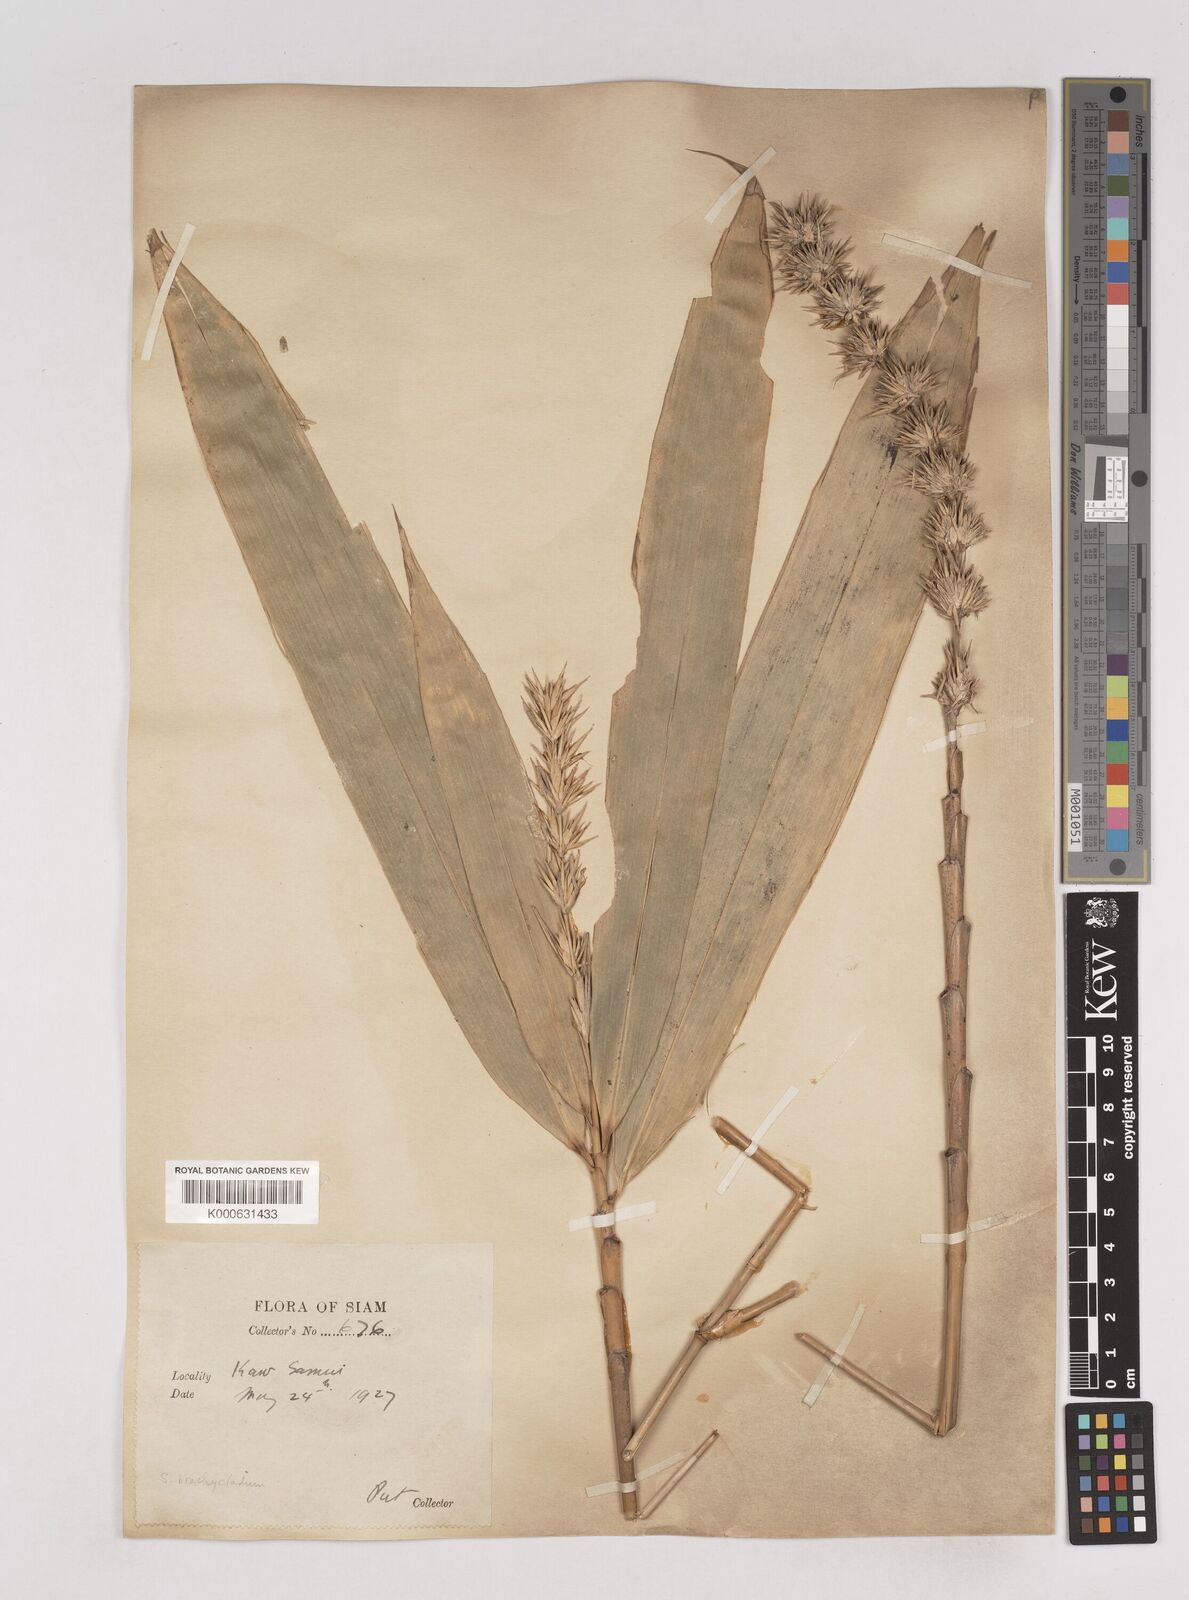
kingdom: Plantae
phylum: Tracheophyta
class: Liliopsida
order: Poales
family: Poaceae
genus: Schizostachyum
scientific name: Schizostachyum brachycladum
